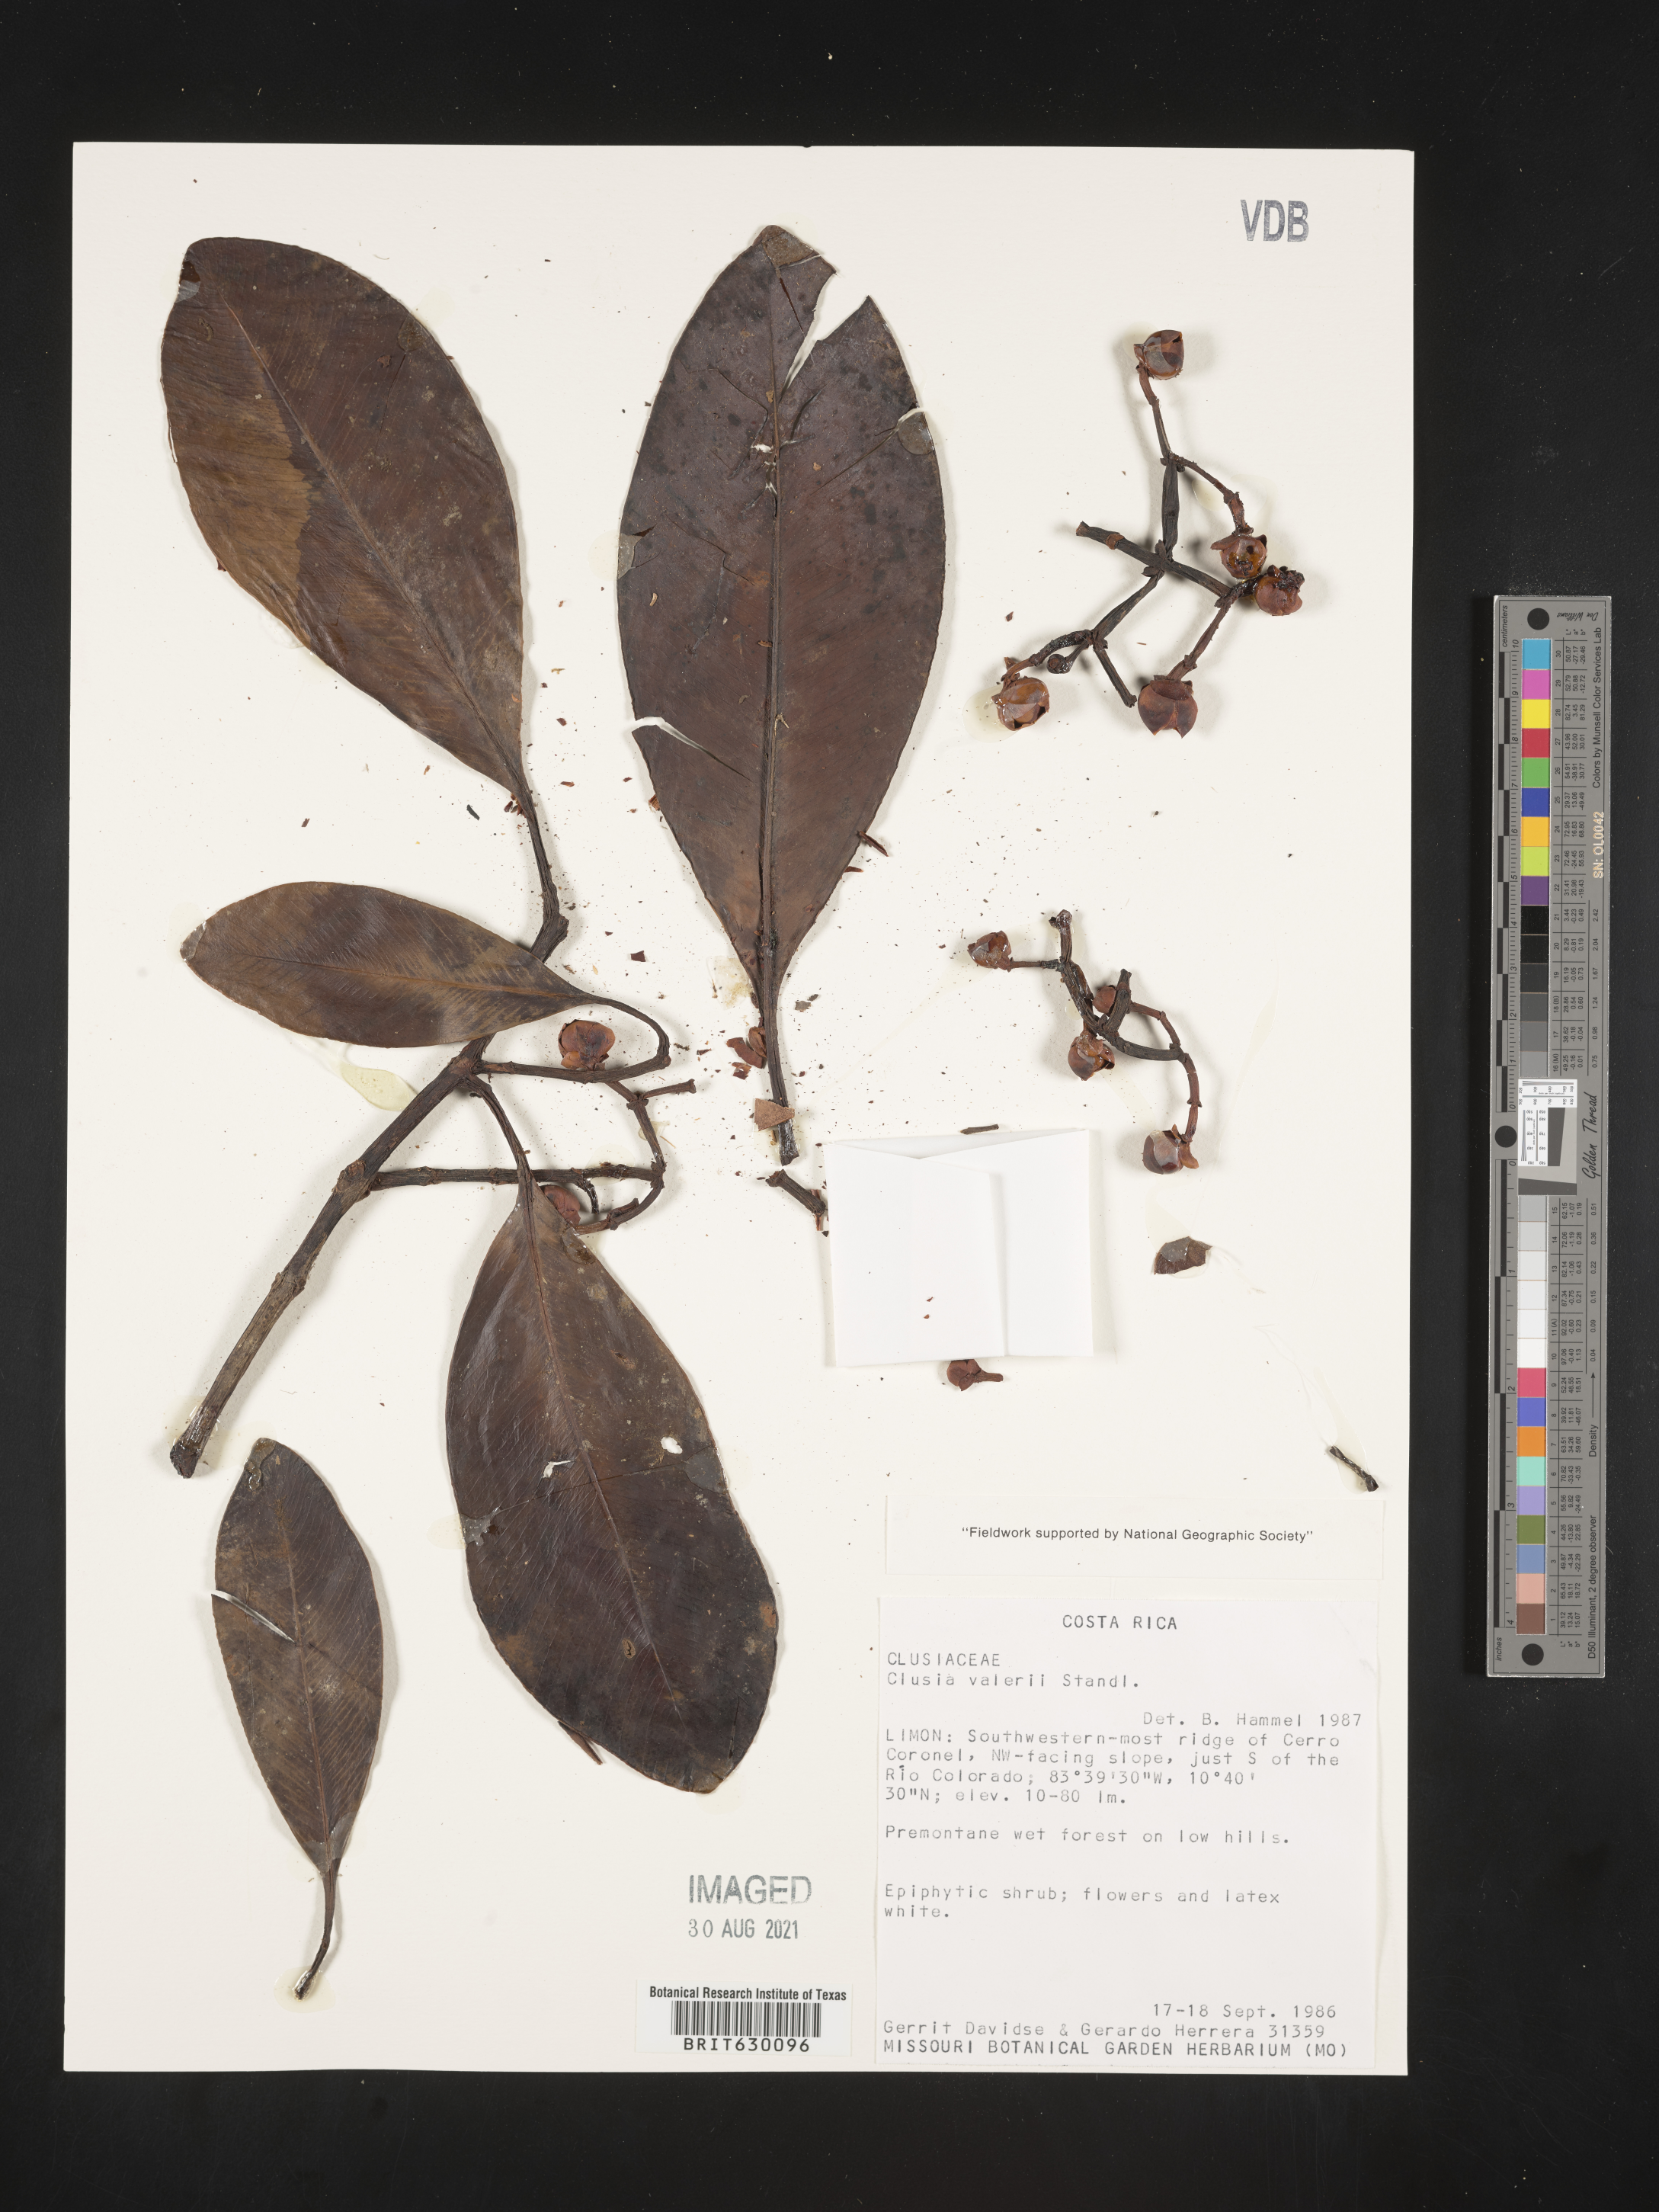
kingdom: Plantae
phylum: Tracheophyta
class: Magnoliopsida
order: Malpighiales
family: Clusiaceae
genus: Clusia
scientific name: Clusia valerioi
